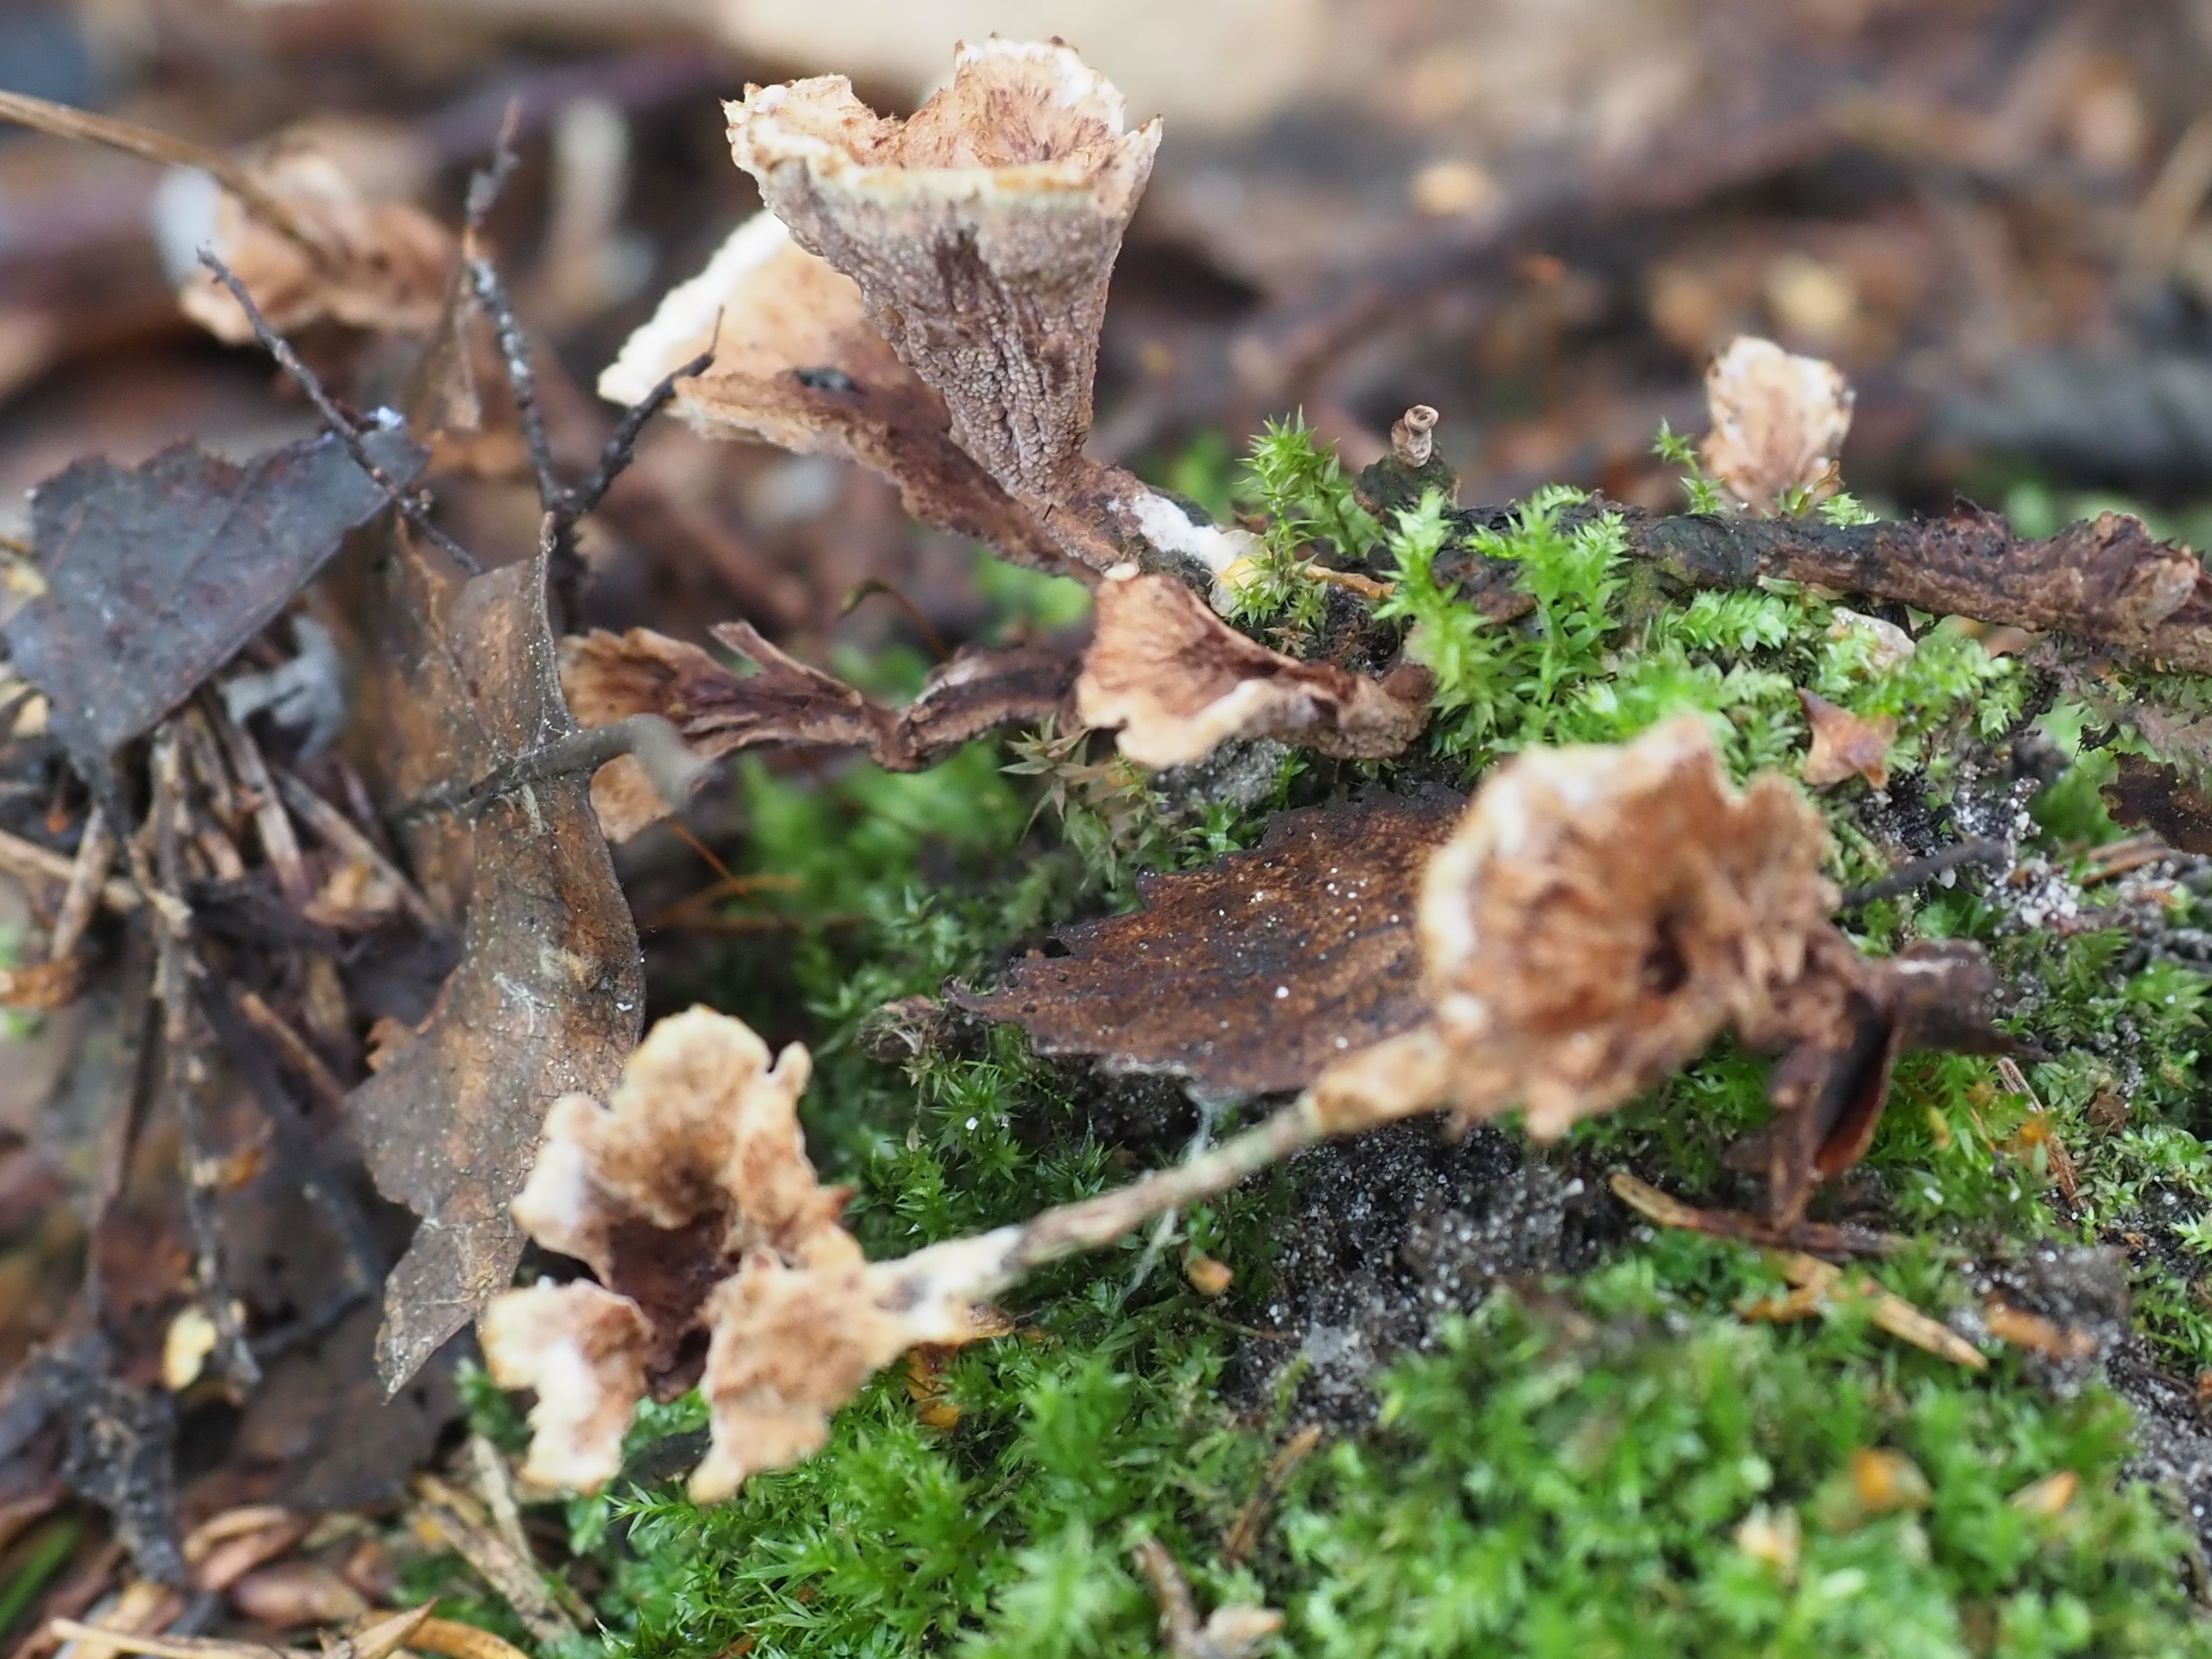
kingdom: Fungi
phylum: Basidiomycota
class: Agaricomycetes
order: Thelephorales
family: Thelephoraceae
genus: Thelephora
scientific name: Thelephora
